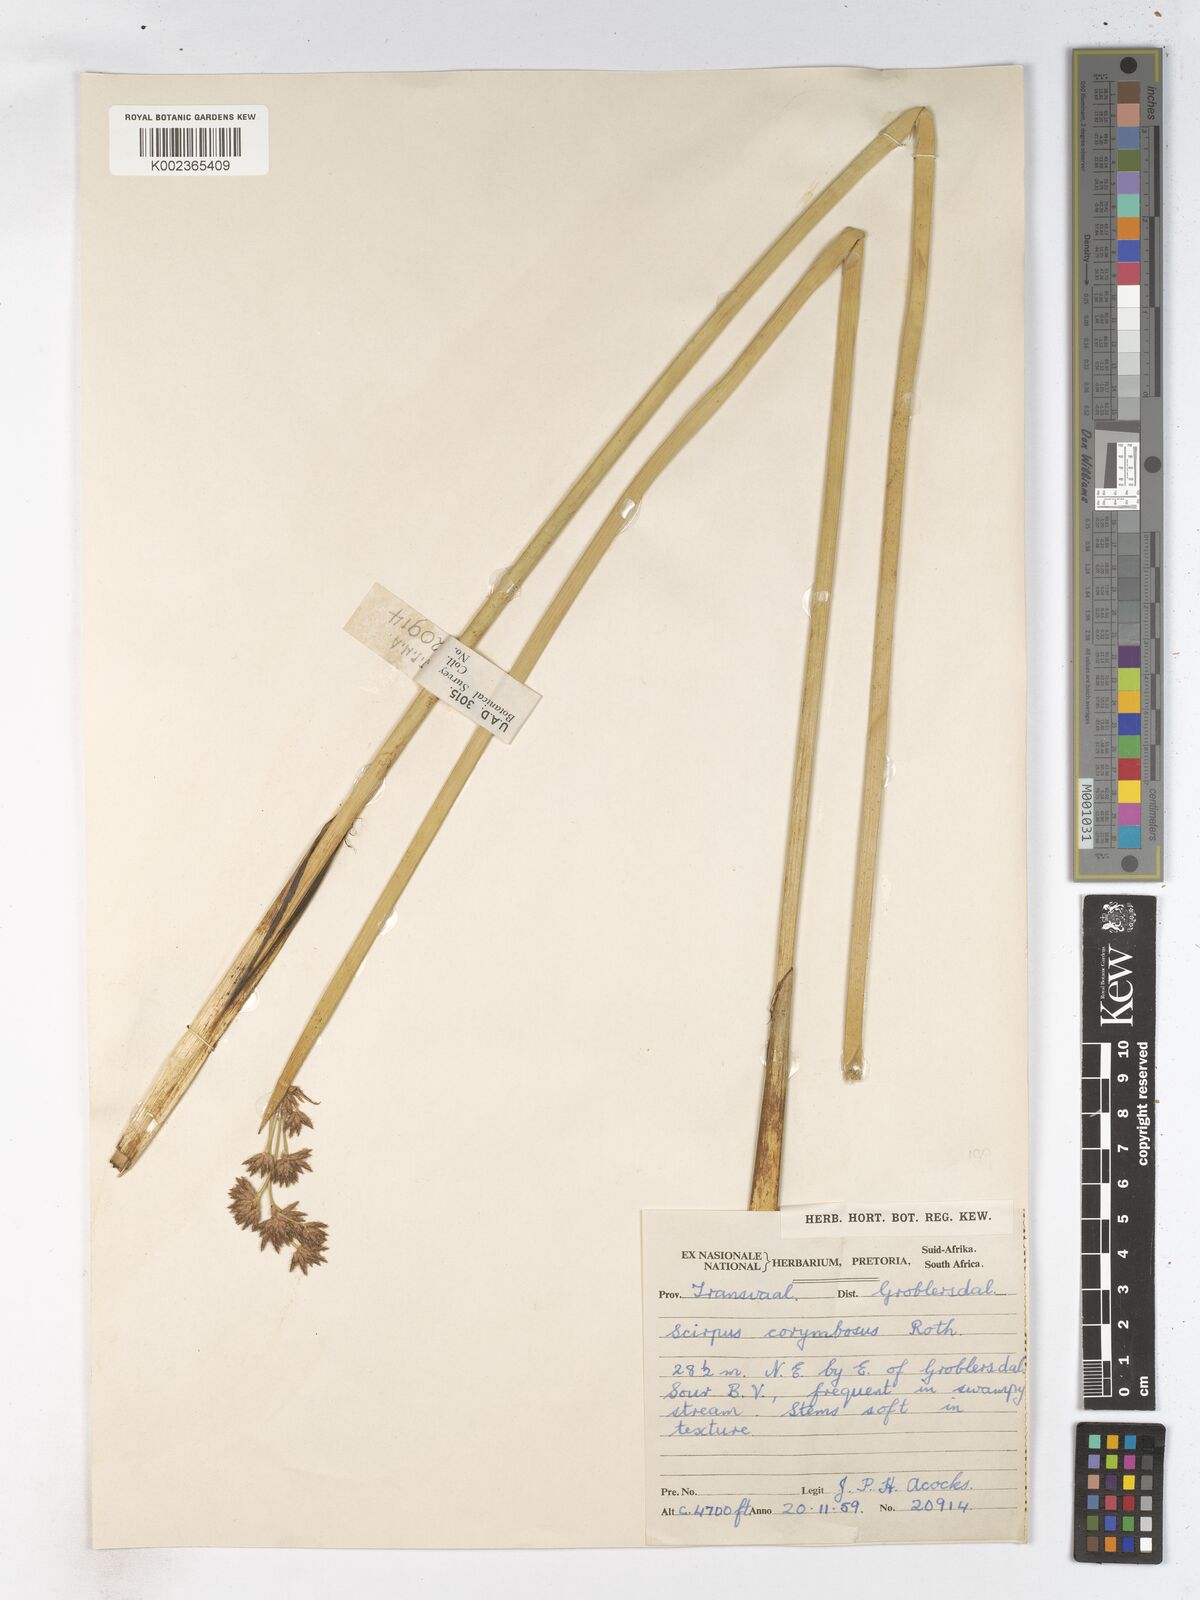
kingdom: Plantae
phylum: Tracheophyta
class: Liliopsida
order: Poales
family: Cyperaceae
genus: Schoenoplectiella
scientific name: Schoenoplectiella brachyceras
